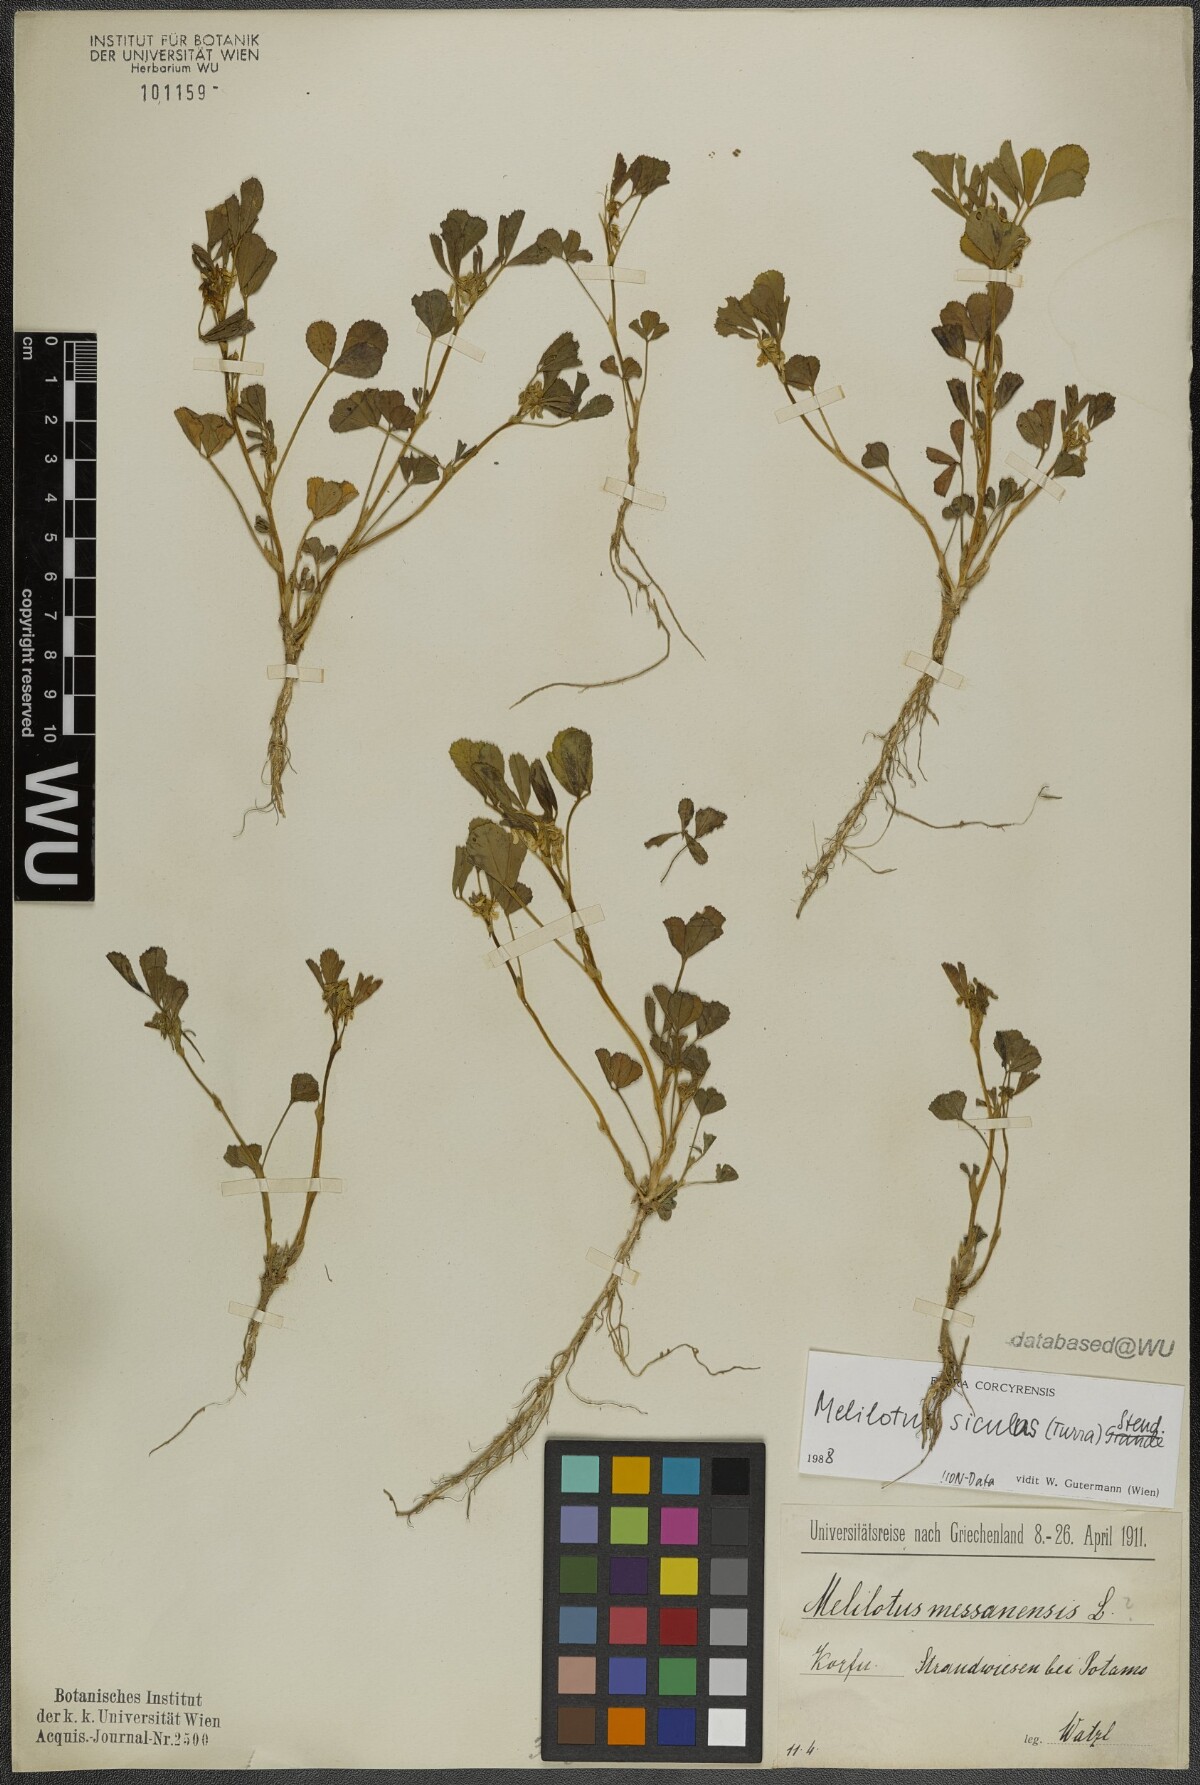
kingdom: Plantae
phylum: Tracheophyta
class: Magnoliopsida
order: Fabales
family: Fabaceae
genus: Melilotus
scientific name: Melilotus siculus
